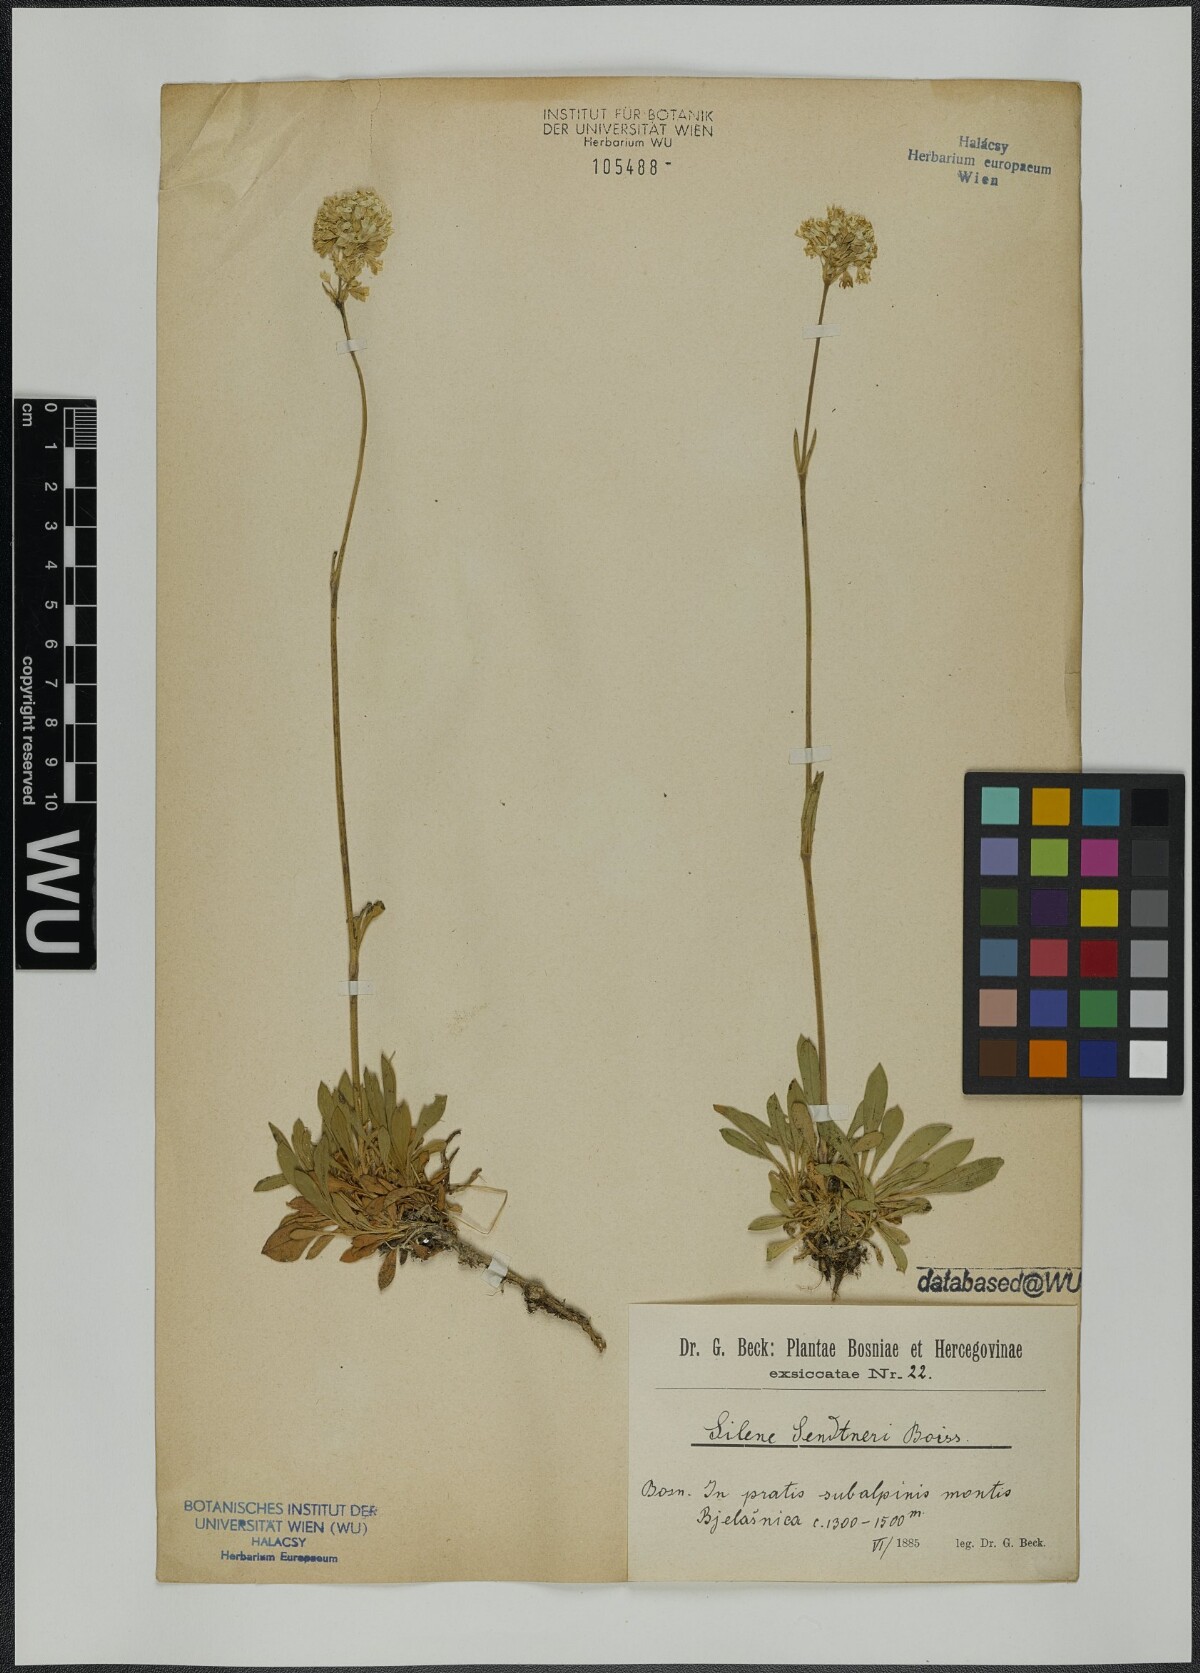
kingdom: Plantae
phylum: Tracheophyta
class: Magnoliopsida
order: Caryophyllales
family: Caryophyllaceae
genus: Silene
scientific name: Silene sendtneri
